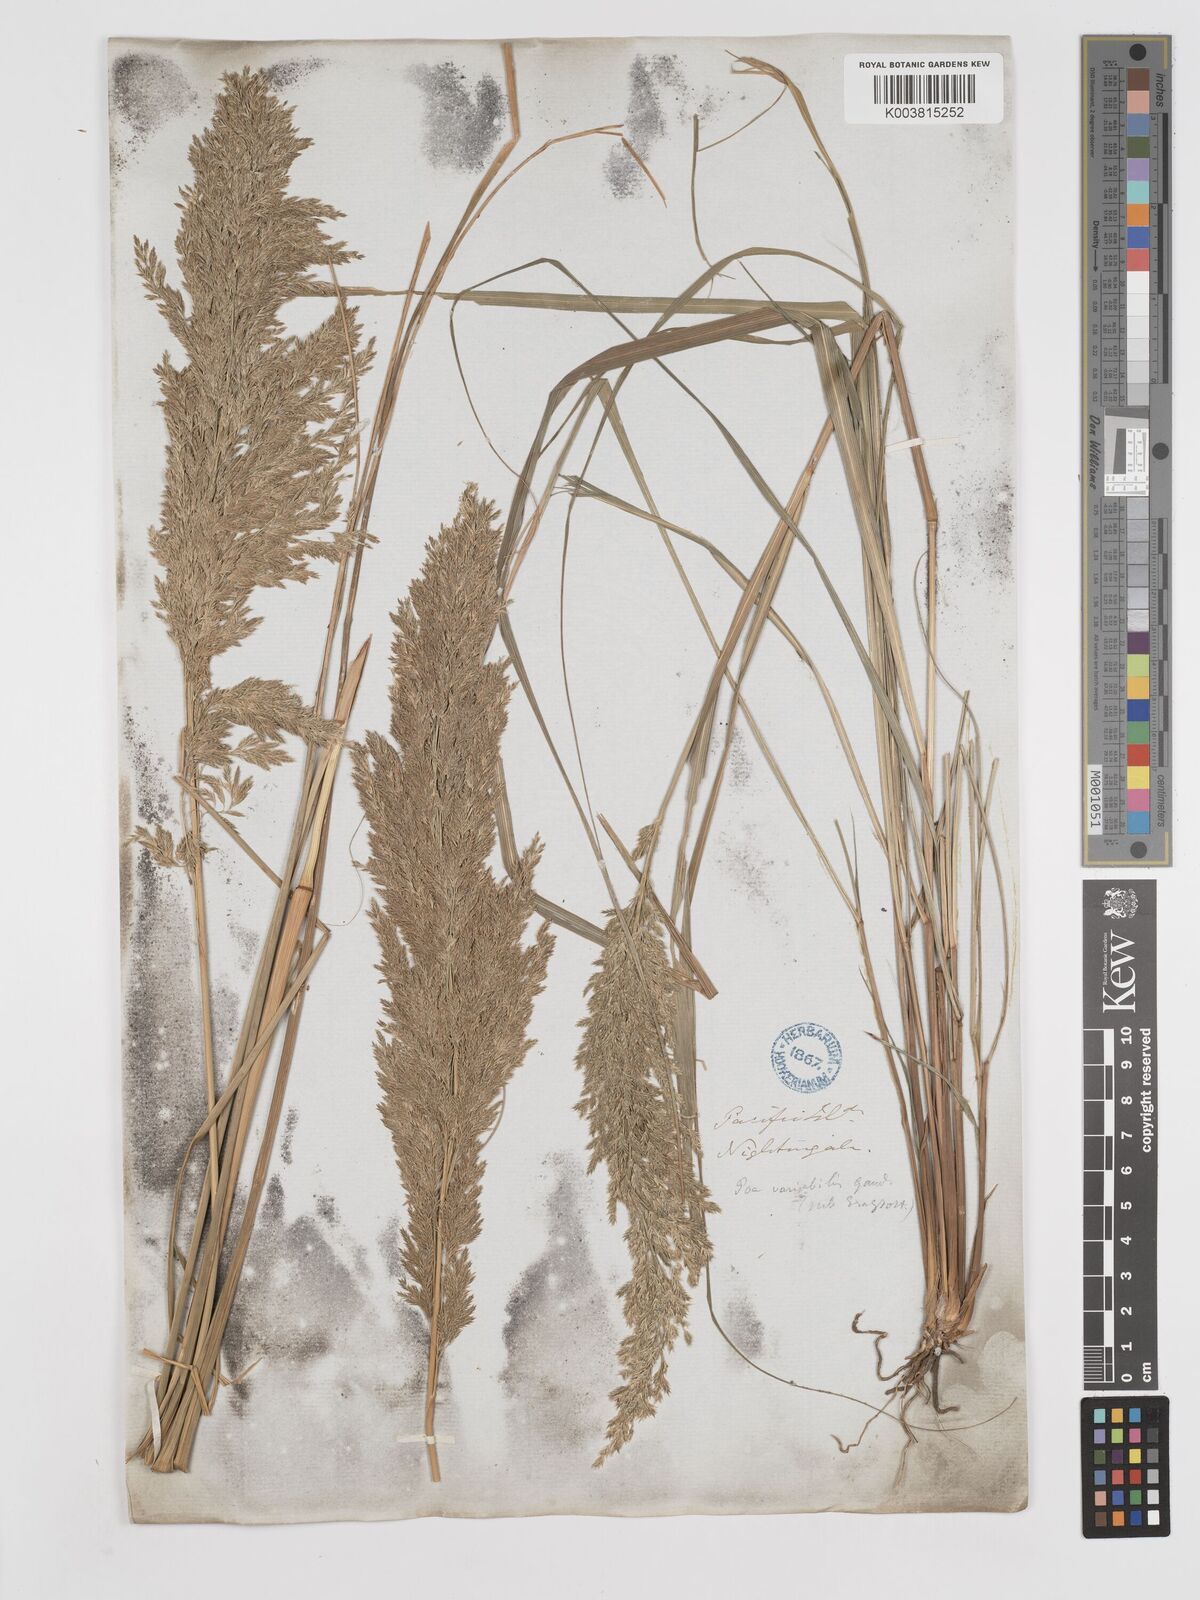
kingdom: Plantae
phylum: Tracheophyta
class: Liliopsida
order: Poales
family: Poaceae
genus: Eragrostis
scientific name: Eragrostis variabilis
